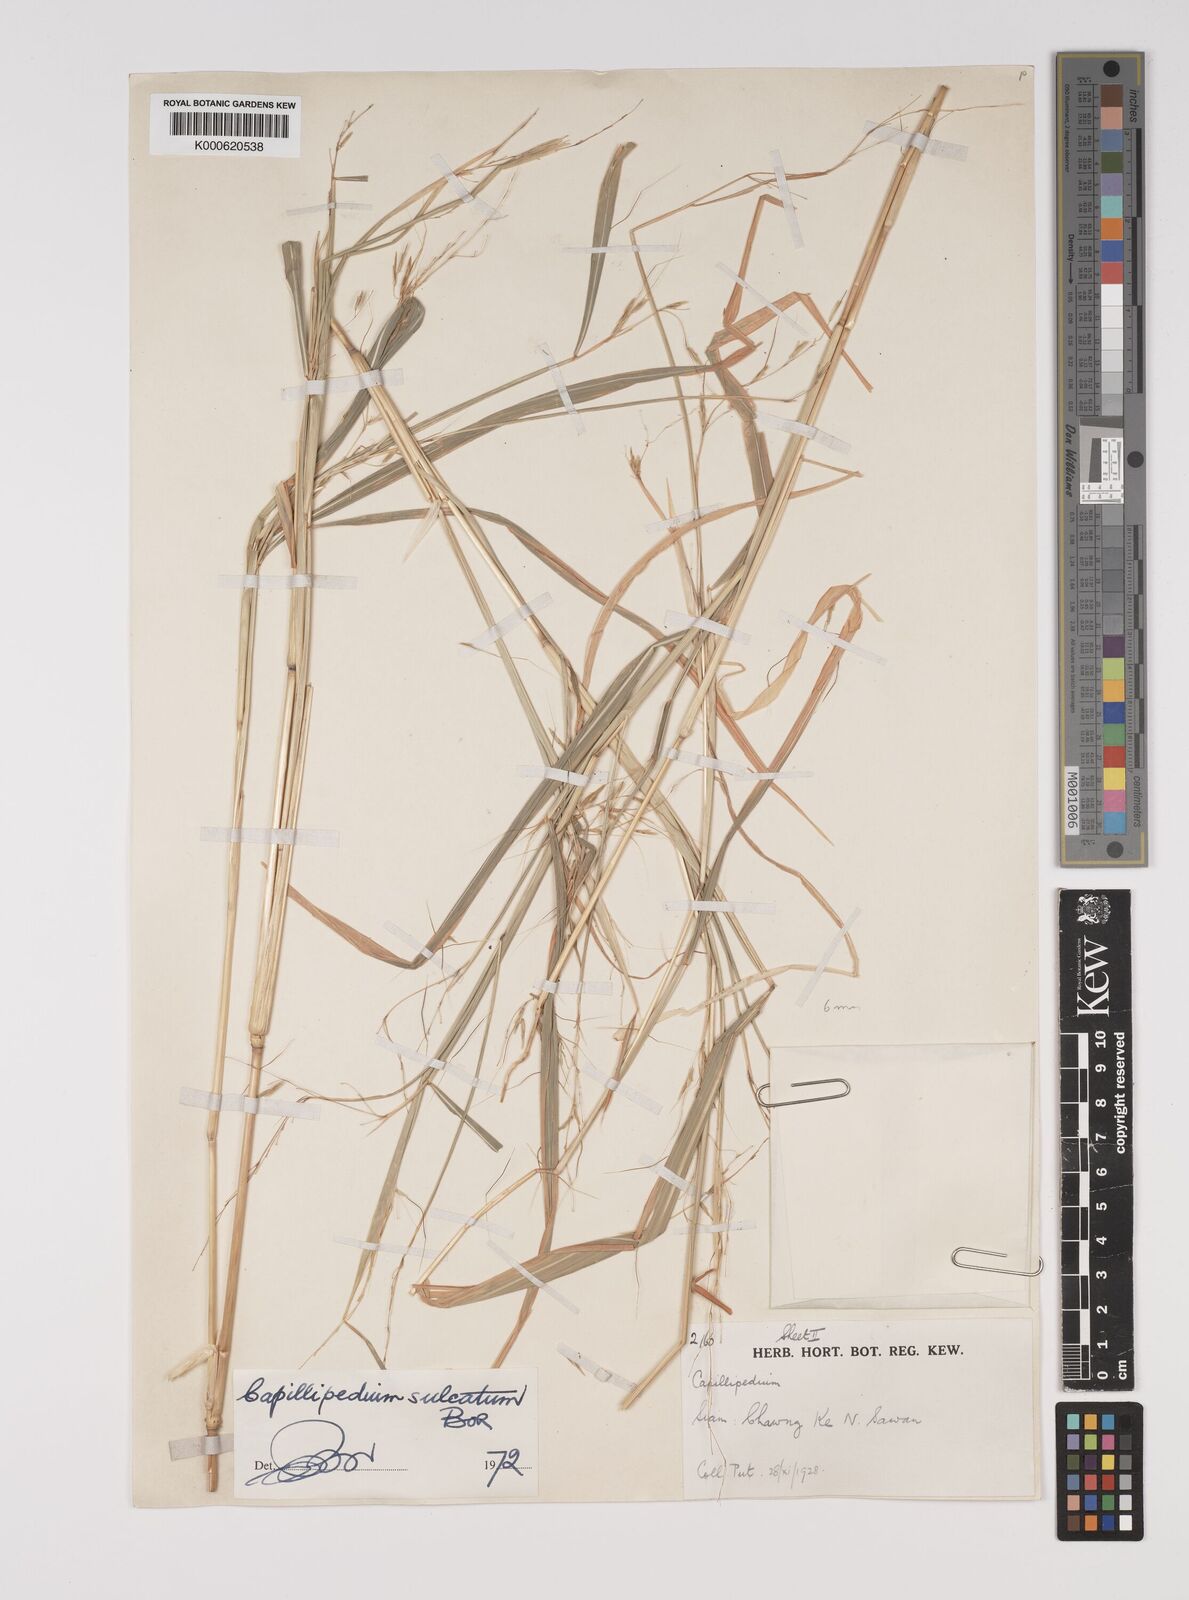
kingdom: Plantae
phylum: Tracheophyta
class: Liliopsida
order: Poales
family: Poaceae
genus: Capillipedium
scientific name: Capillipedium sulcatum
